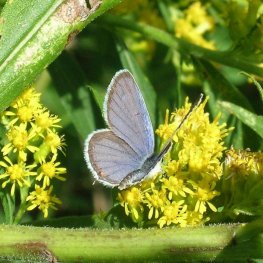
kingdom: Animalia
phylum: Arthropoda
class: Insecta
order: Lepidoptera
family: Lycaenidae
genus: Elkalyce
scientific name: Elkalyce comyntas
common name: Eastern Tailed-Blue
